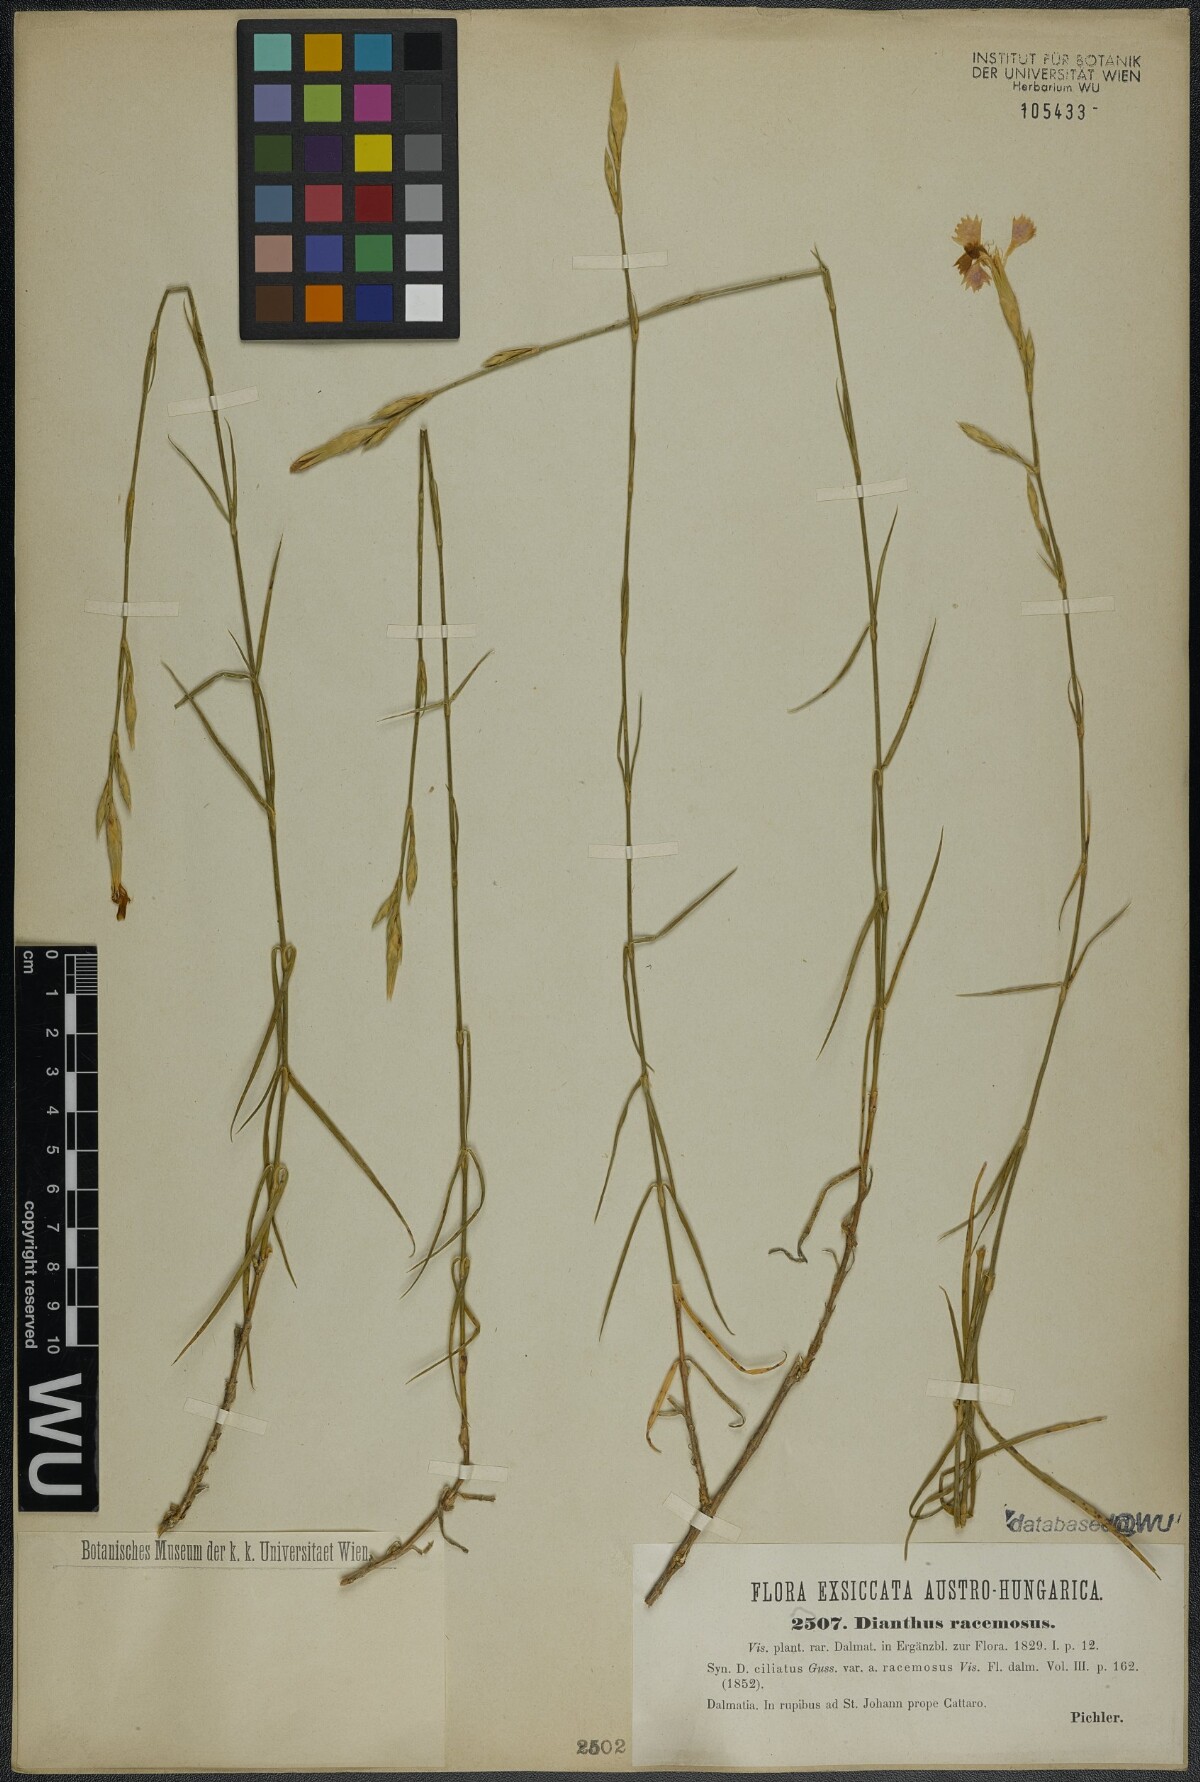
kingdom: Plantae
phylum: Tracheophyta
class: Magnoliopsida
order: Caryophyllales
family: Caryophyllaceae
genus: Dianthus
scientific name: Dianthus ciliatus
